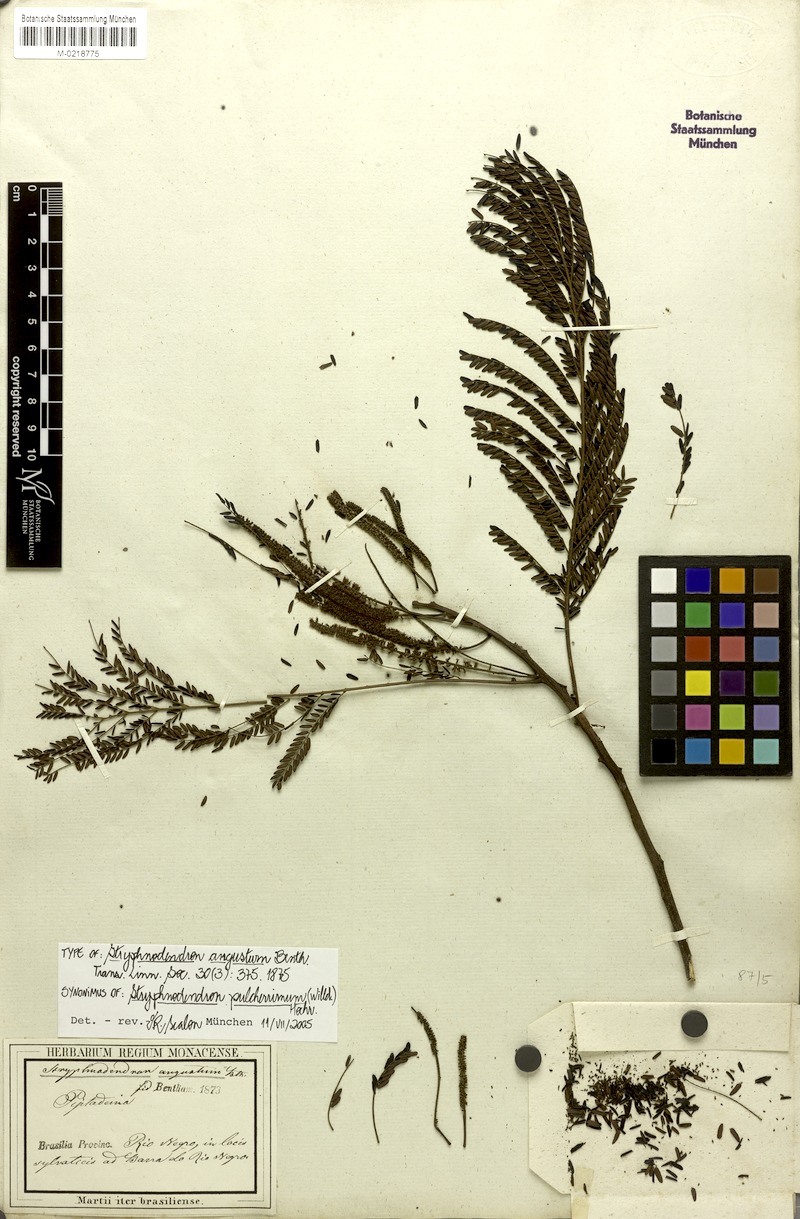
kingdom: Plantae
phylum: Tracheophyta
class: Magnoliopsida
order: Fabales
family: Fabaceae
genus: Stryphnodendron
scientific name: Stryphnodendron pulcherrimum
